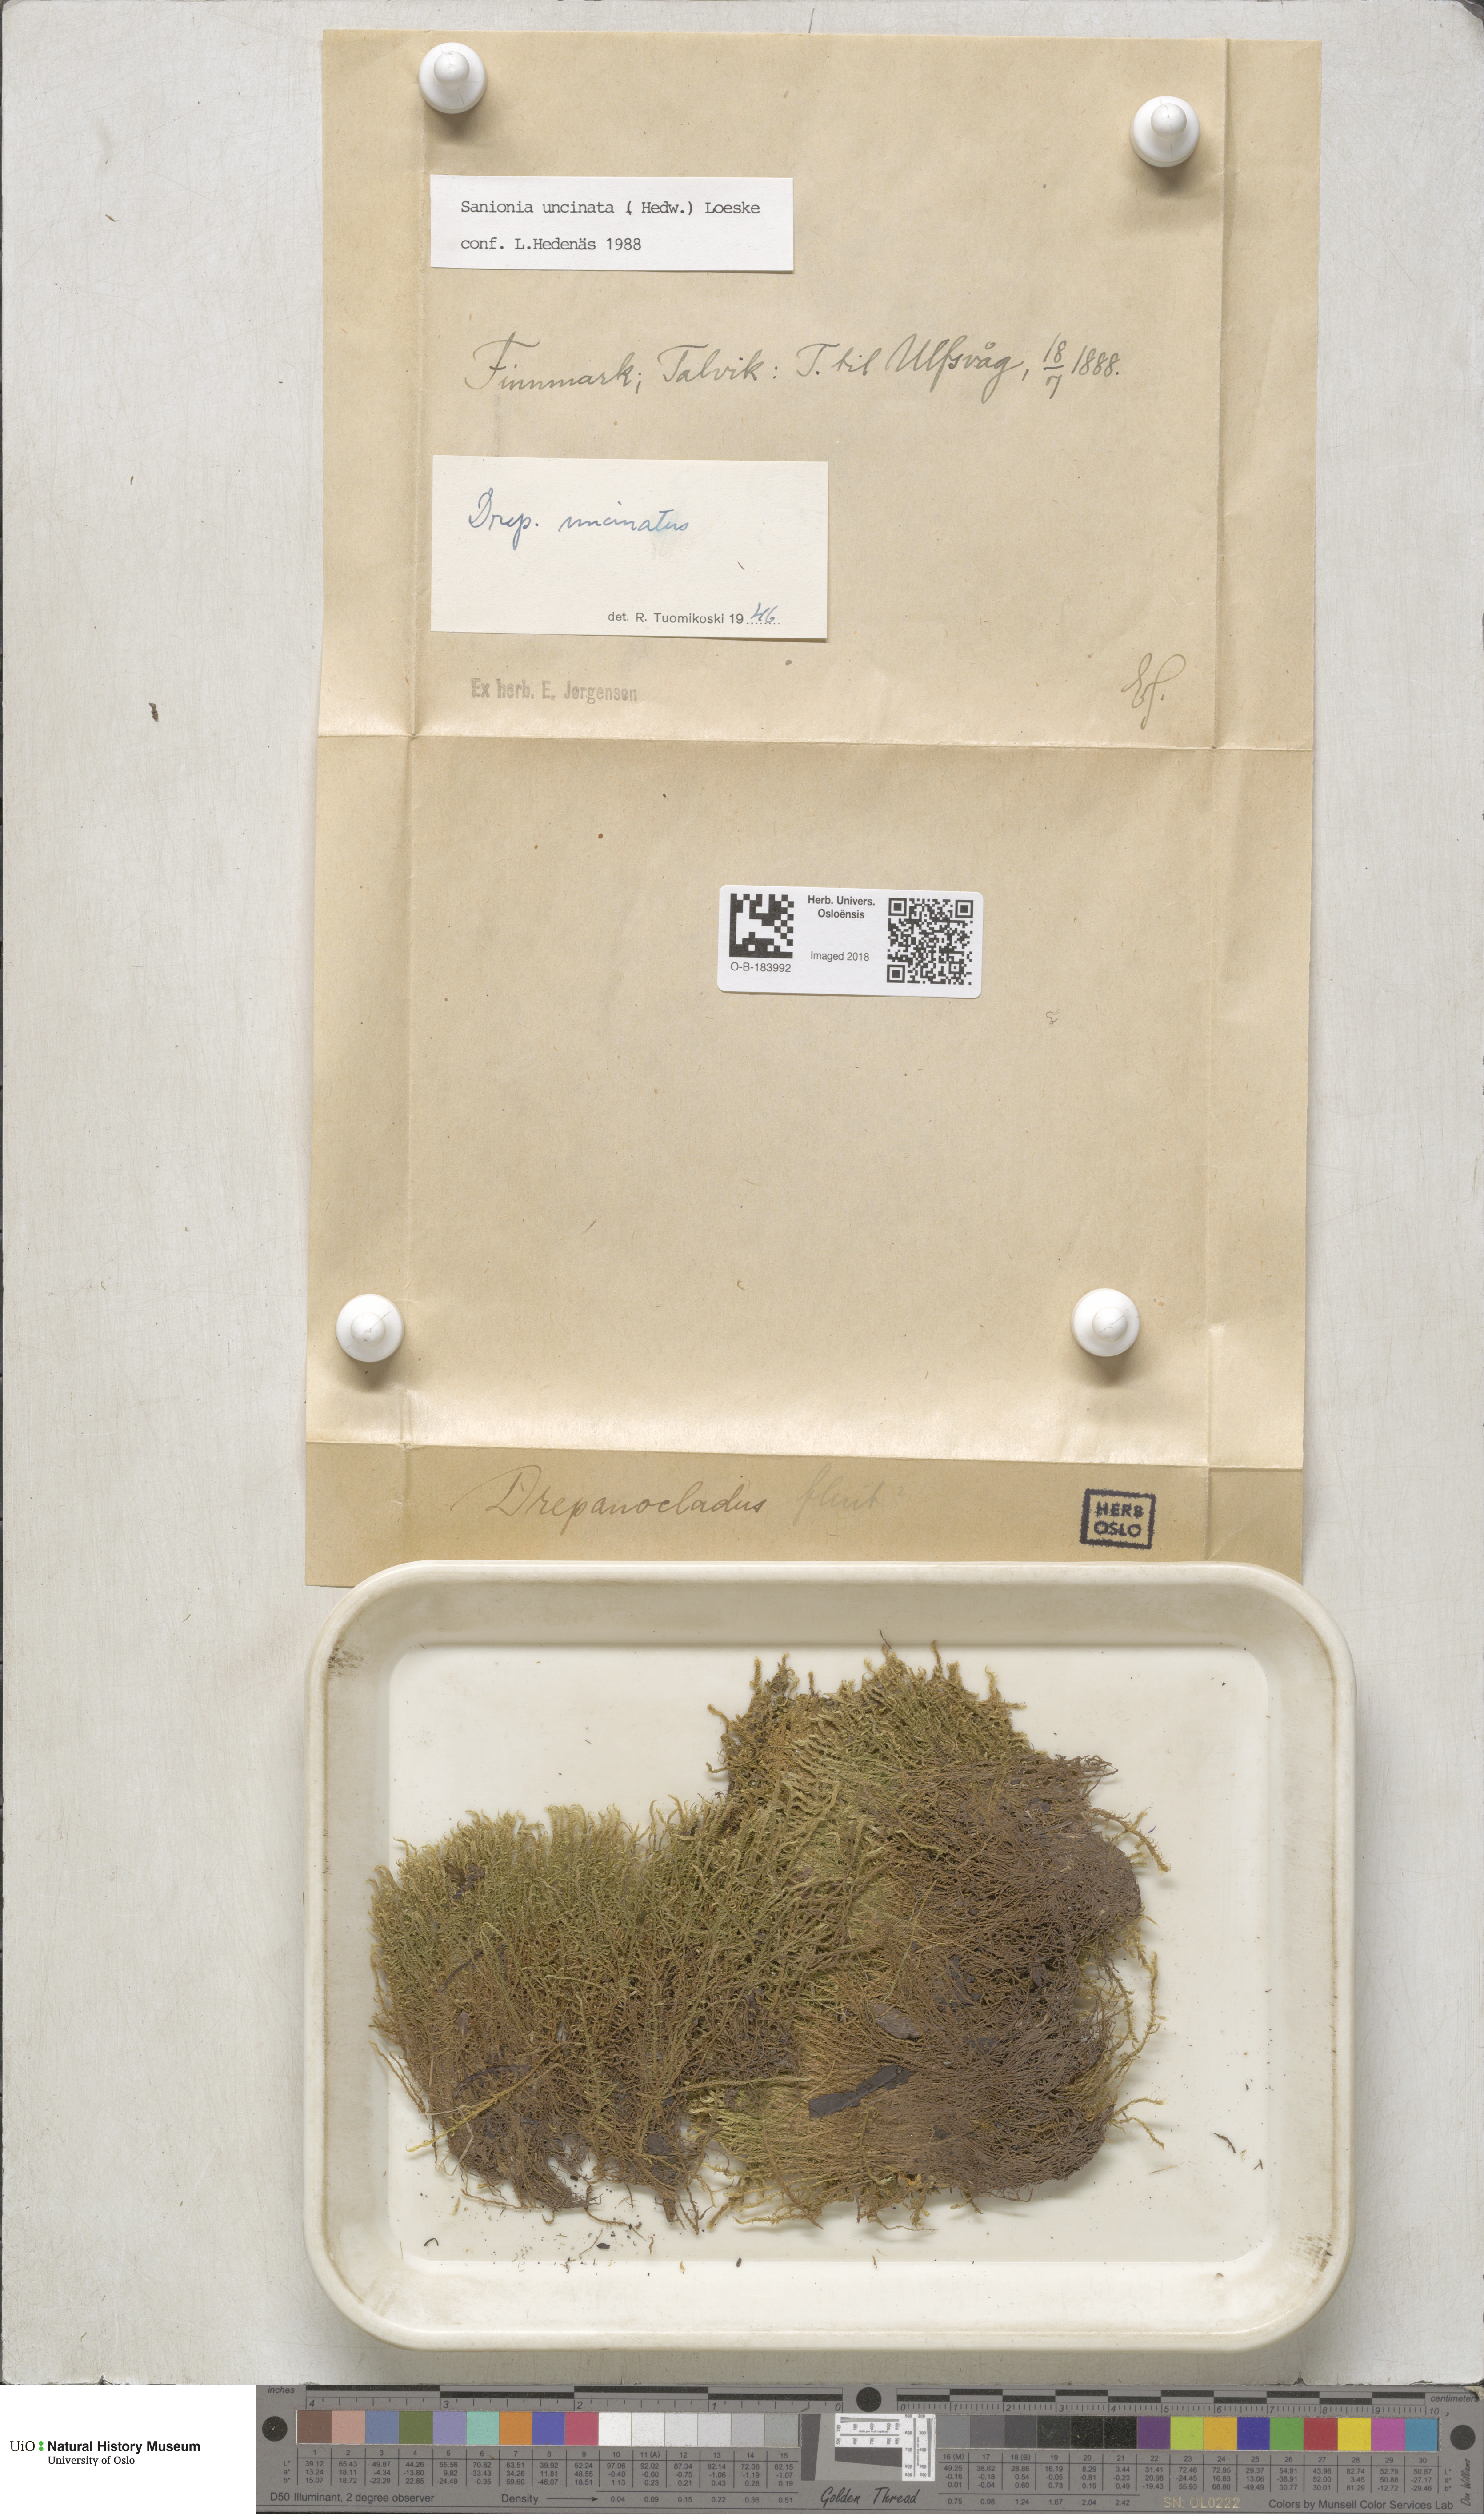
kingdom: Plantae
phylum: Bryophyta
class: Bryopsida
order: Hypnales
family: Scorpidiaceae
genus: Sanionia
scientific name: Sanionia uncinata
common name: Sickle moss
